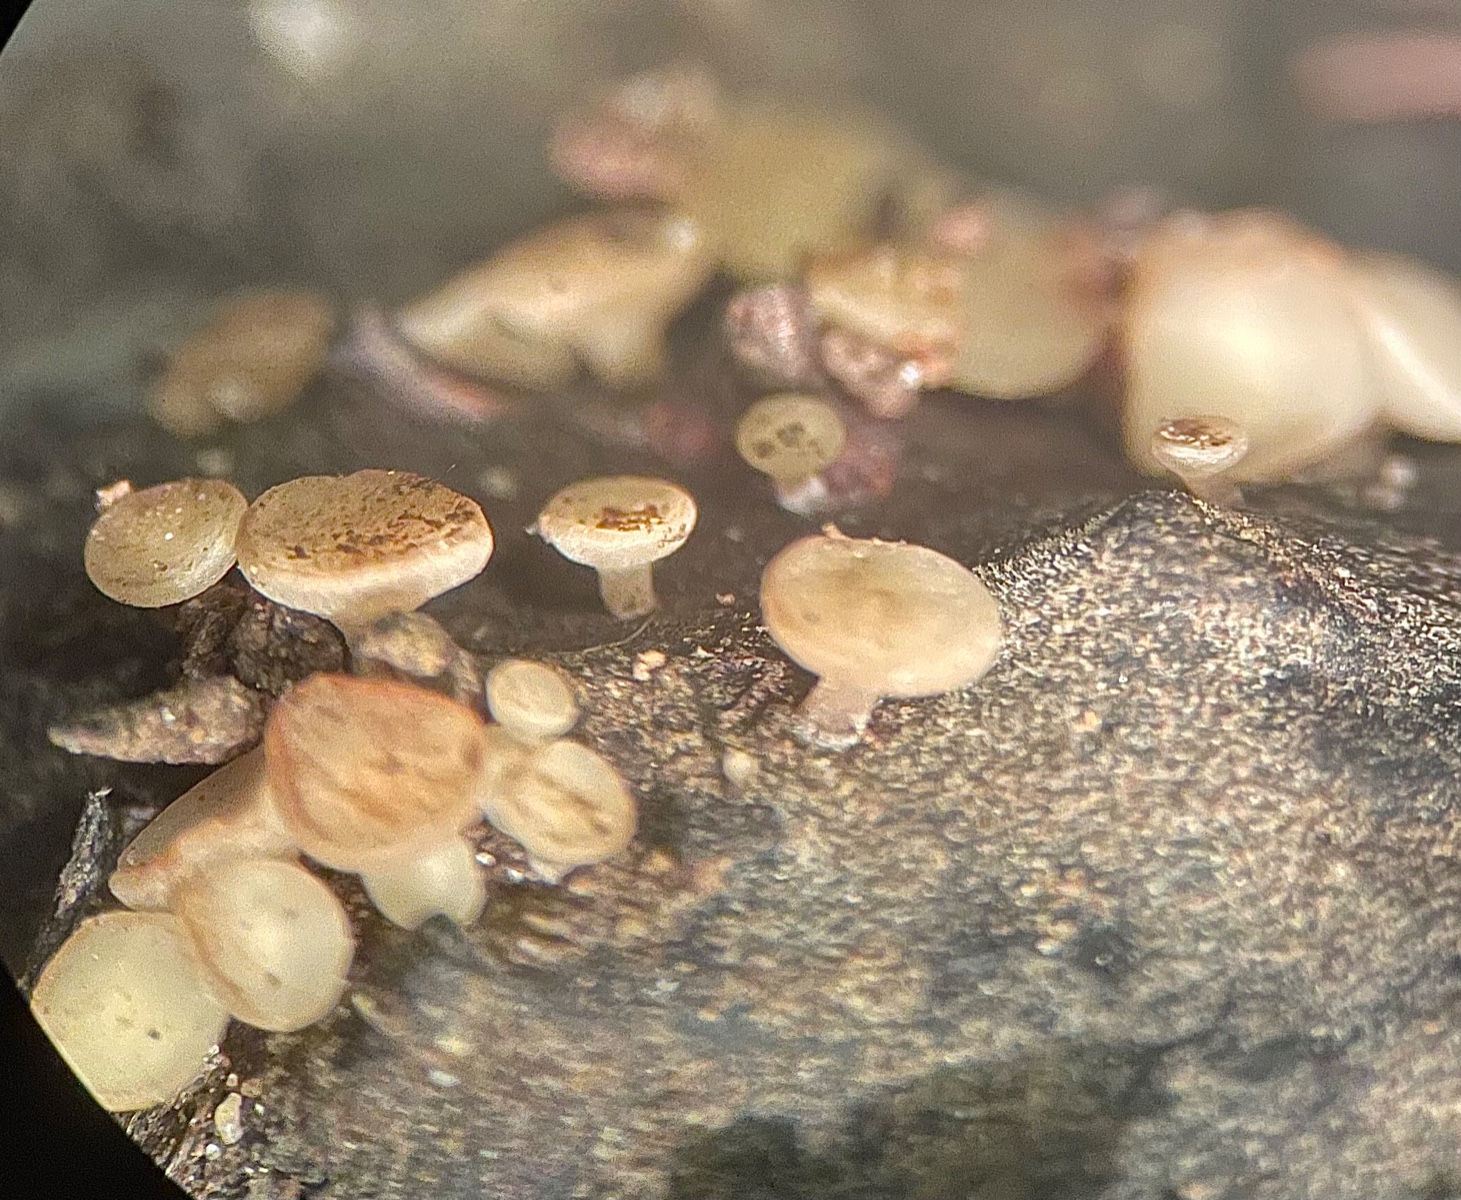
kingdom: Fungi
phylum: Ascomycota
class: Leotiomycetes
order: Helotiales
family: Helotiaceae
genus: Hymenoscyphus
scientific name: Hymenoscyphus fagineus
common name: vellugtende stilkskive
